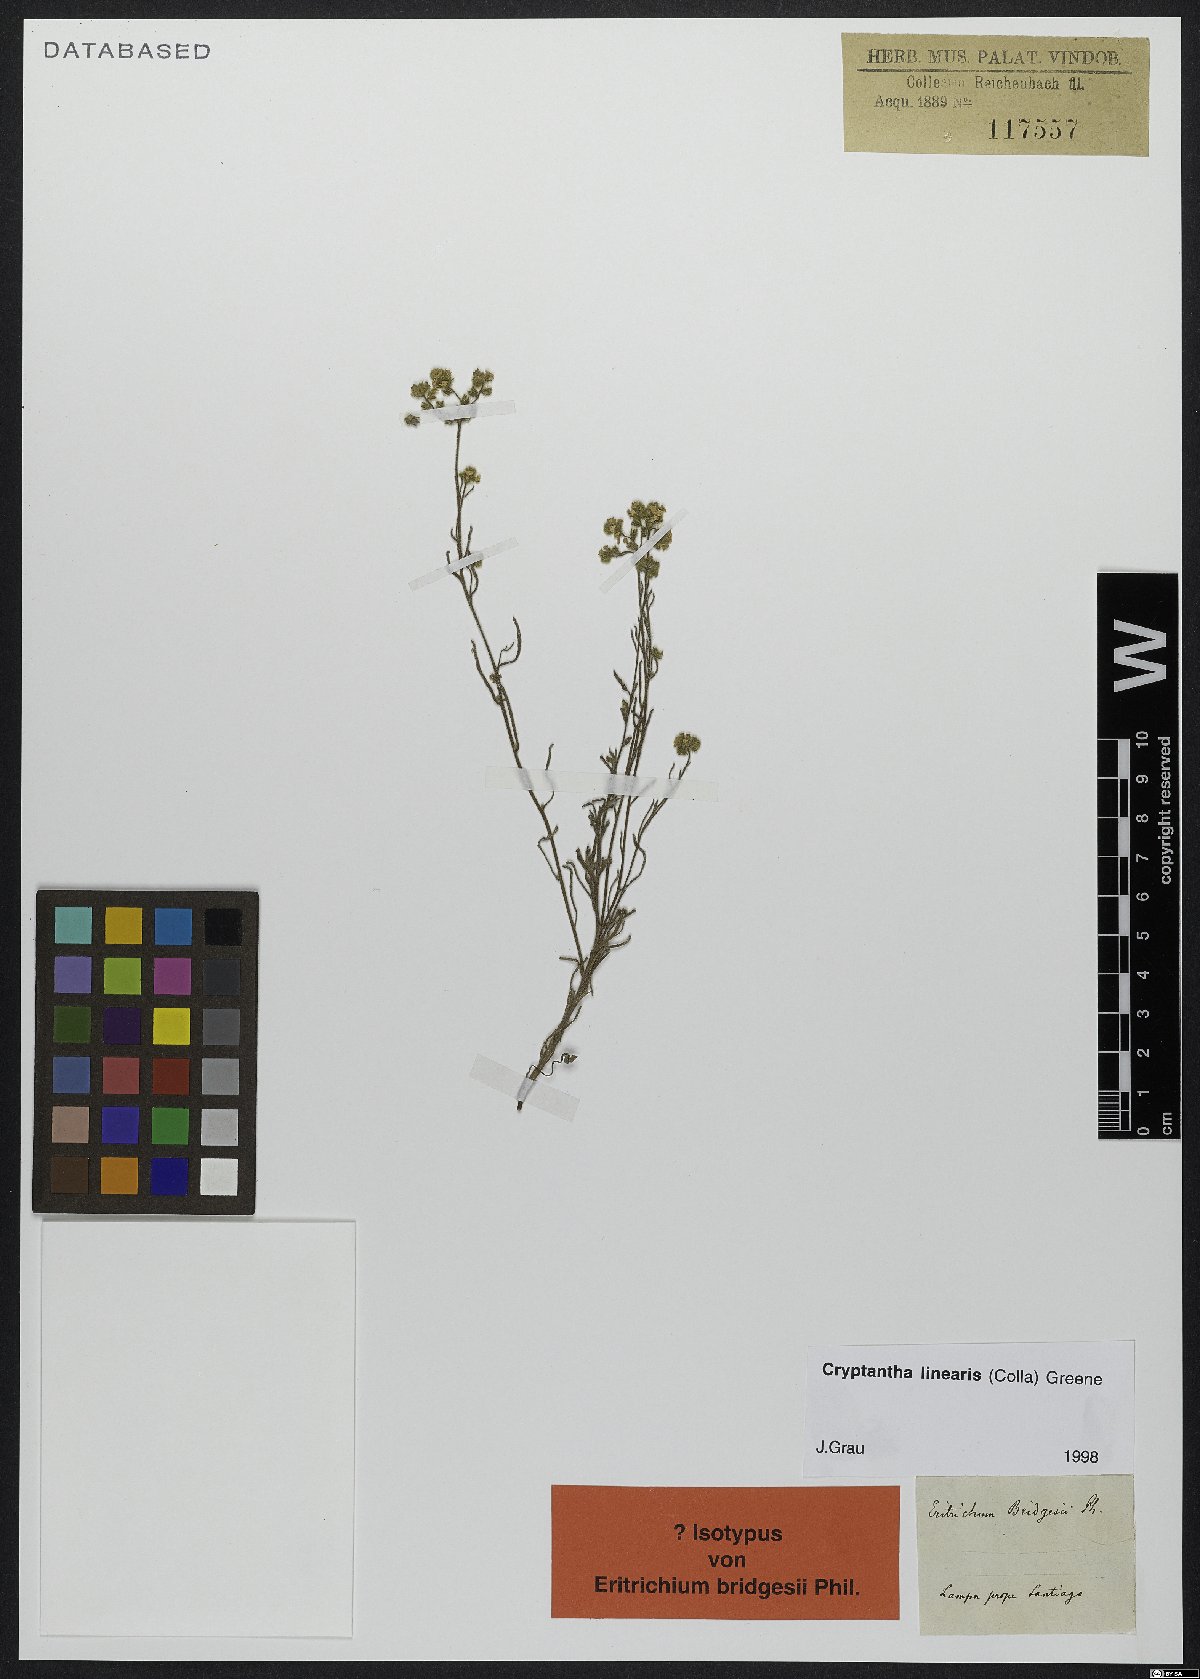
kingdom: Plantae
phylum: Tracheophyta
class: Magnoliopsida
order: Boraginales
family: Boraginaceae
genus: Cryptantha
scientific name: Cryptantha linearis
